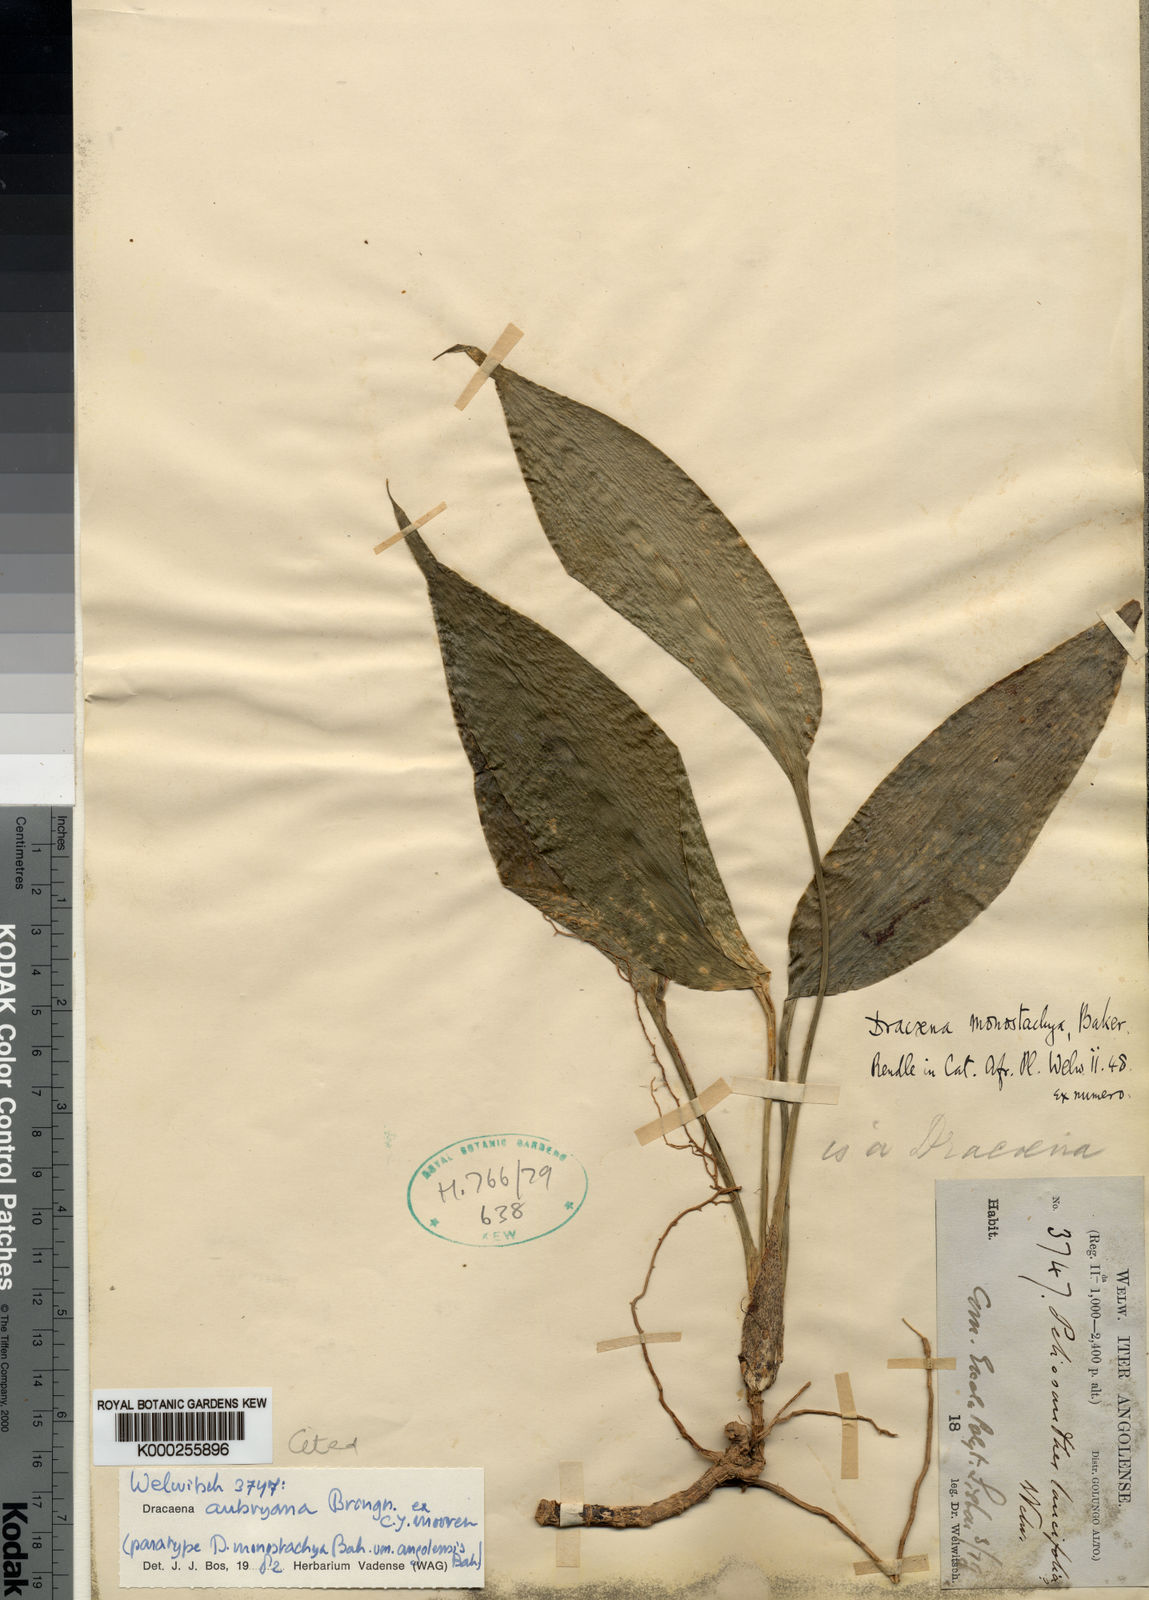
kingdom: Plantae
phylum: Tracheophyta
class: Liliopsida
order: Asparagales
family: Asparagaceae
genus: Dracaena
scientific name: Dracaena aubryana
